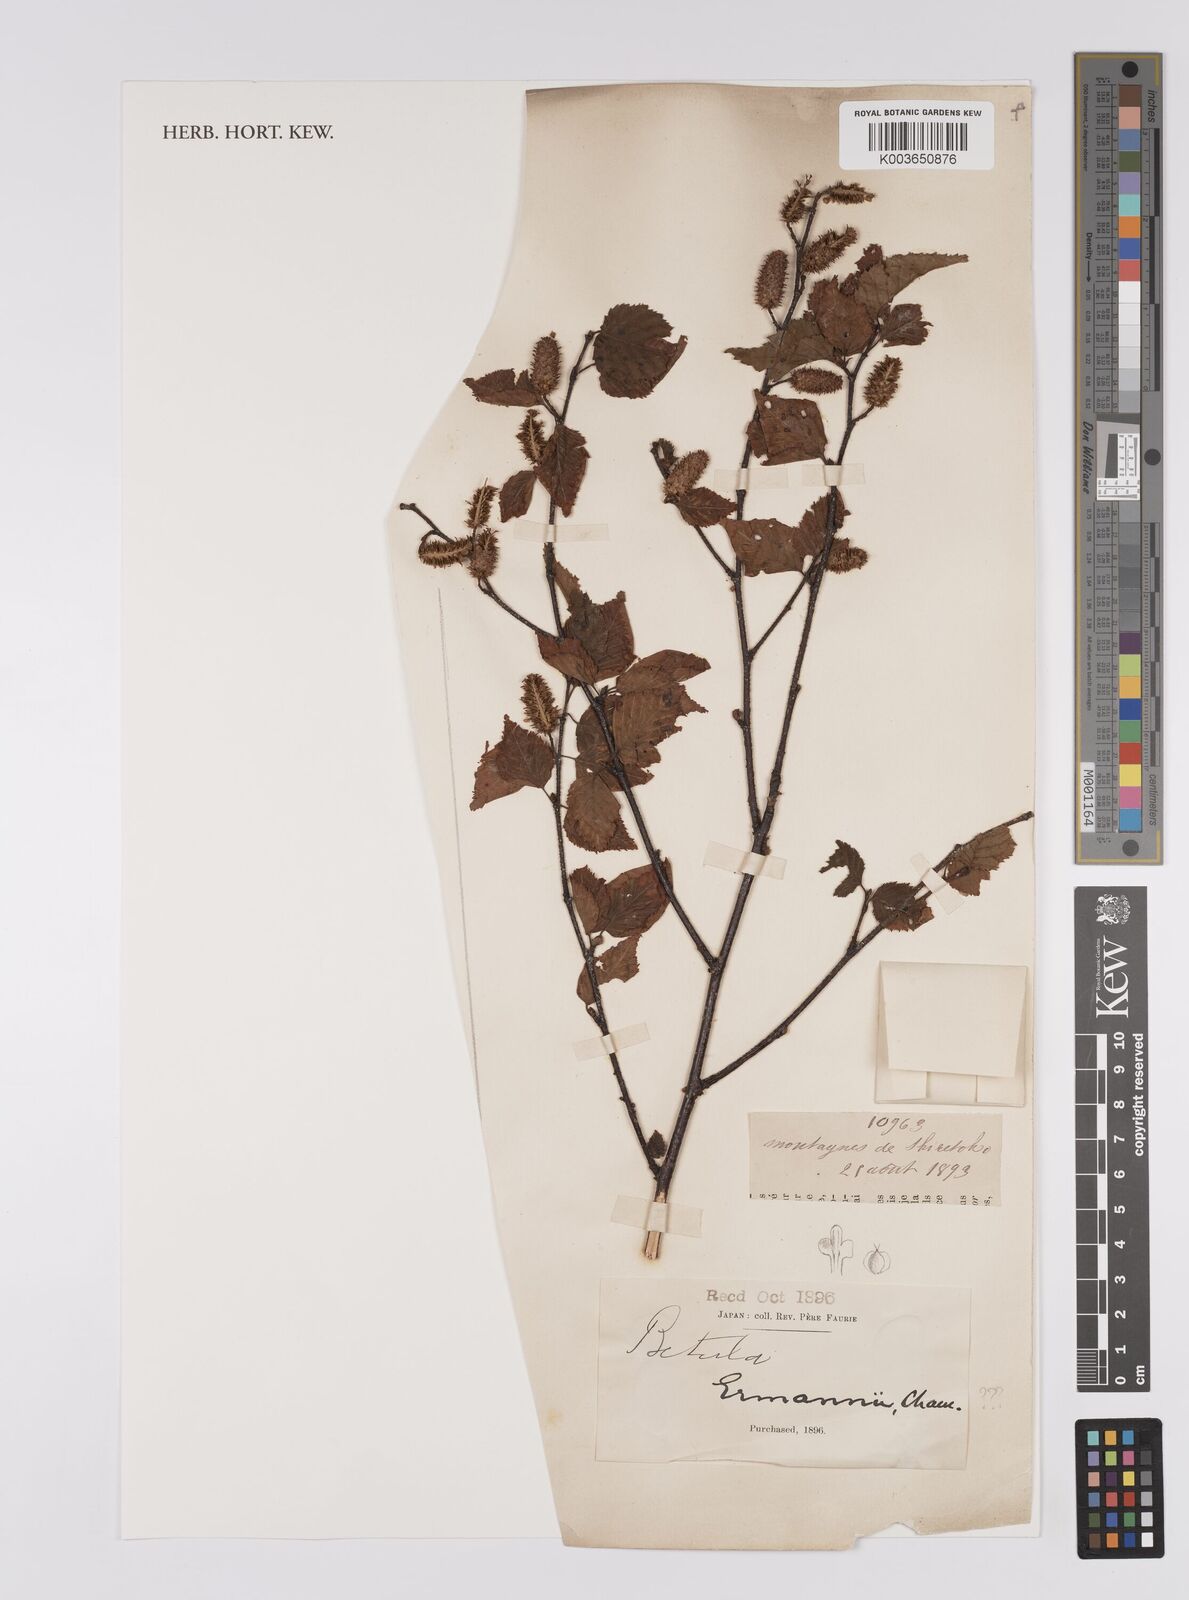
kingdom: Plantae
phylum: Tracheophyta
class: Magnoliopsida
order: Fagales
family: Betulaceae
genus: Betula
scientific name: Betula
